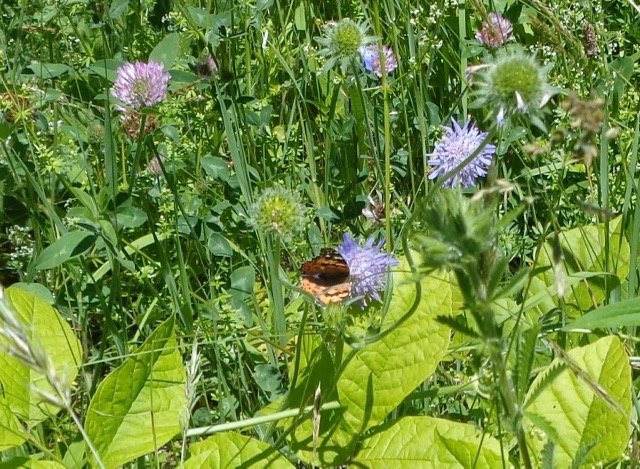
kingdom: Animalia
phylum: Arthropoda
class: Insecta
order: Lepidoptera
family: Nymphalidae
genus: Vanessa
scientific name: Vanessa virginiensis
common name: American Lady
